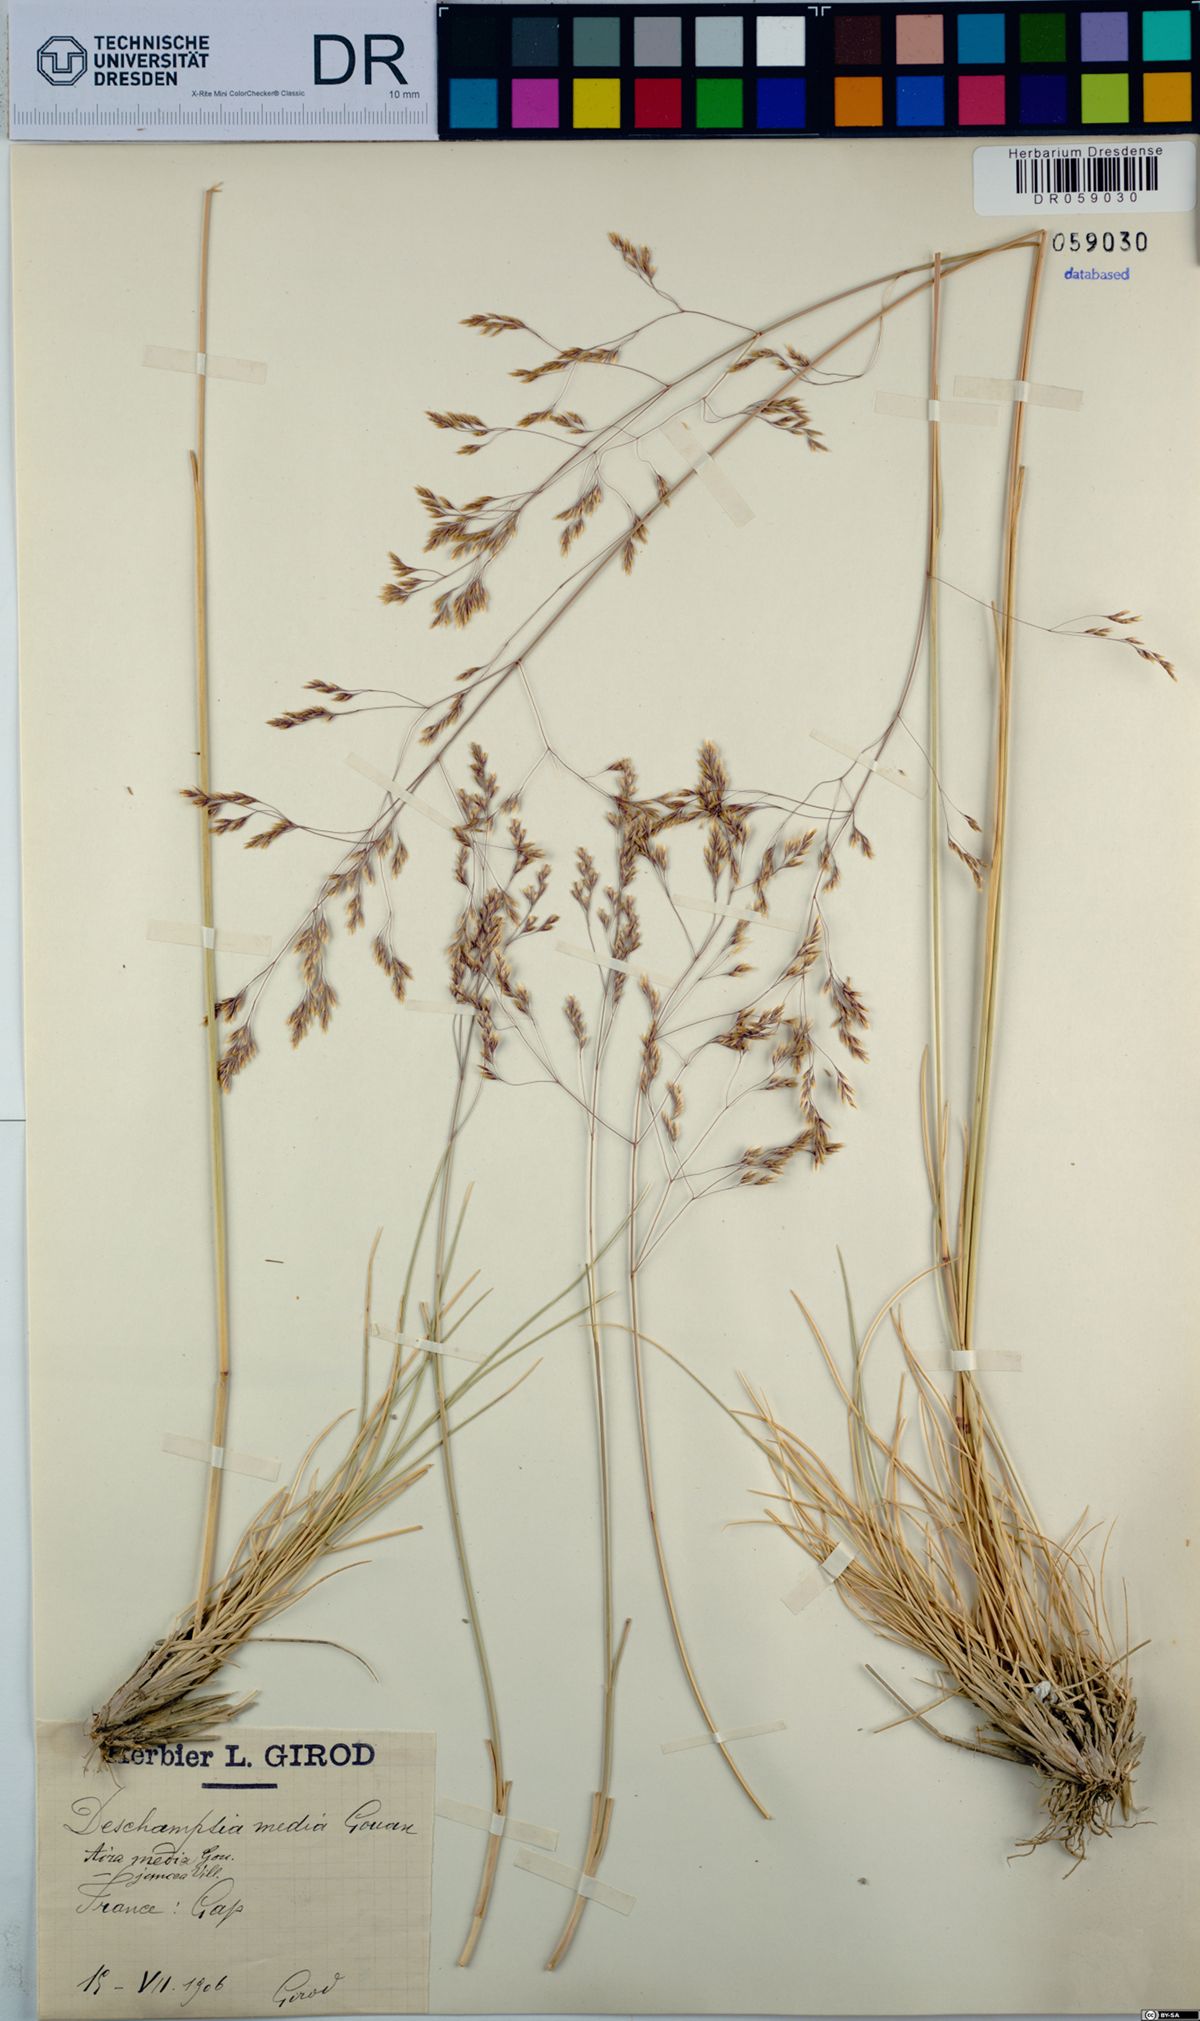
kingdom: Plantae
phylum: Tracheophyta
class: Liliopsida
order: Poales
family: Poaceae
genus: Deschampsia
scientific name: Deschampsia media
